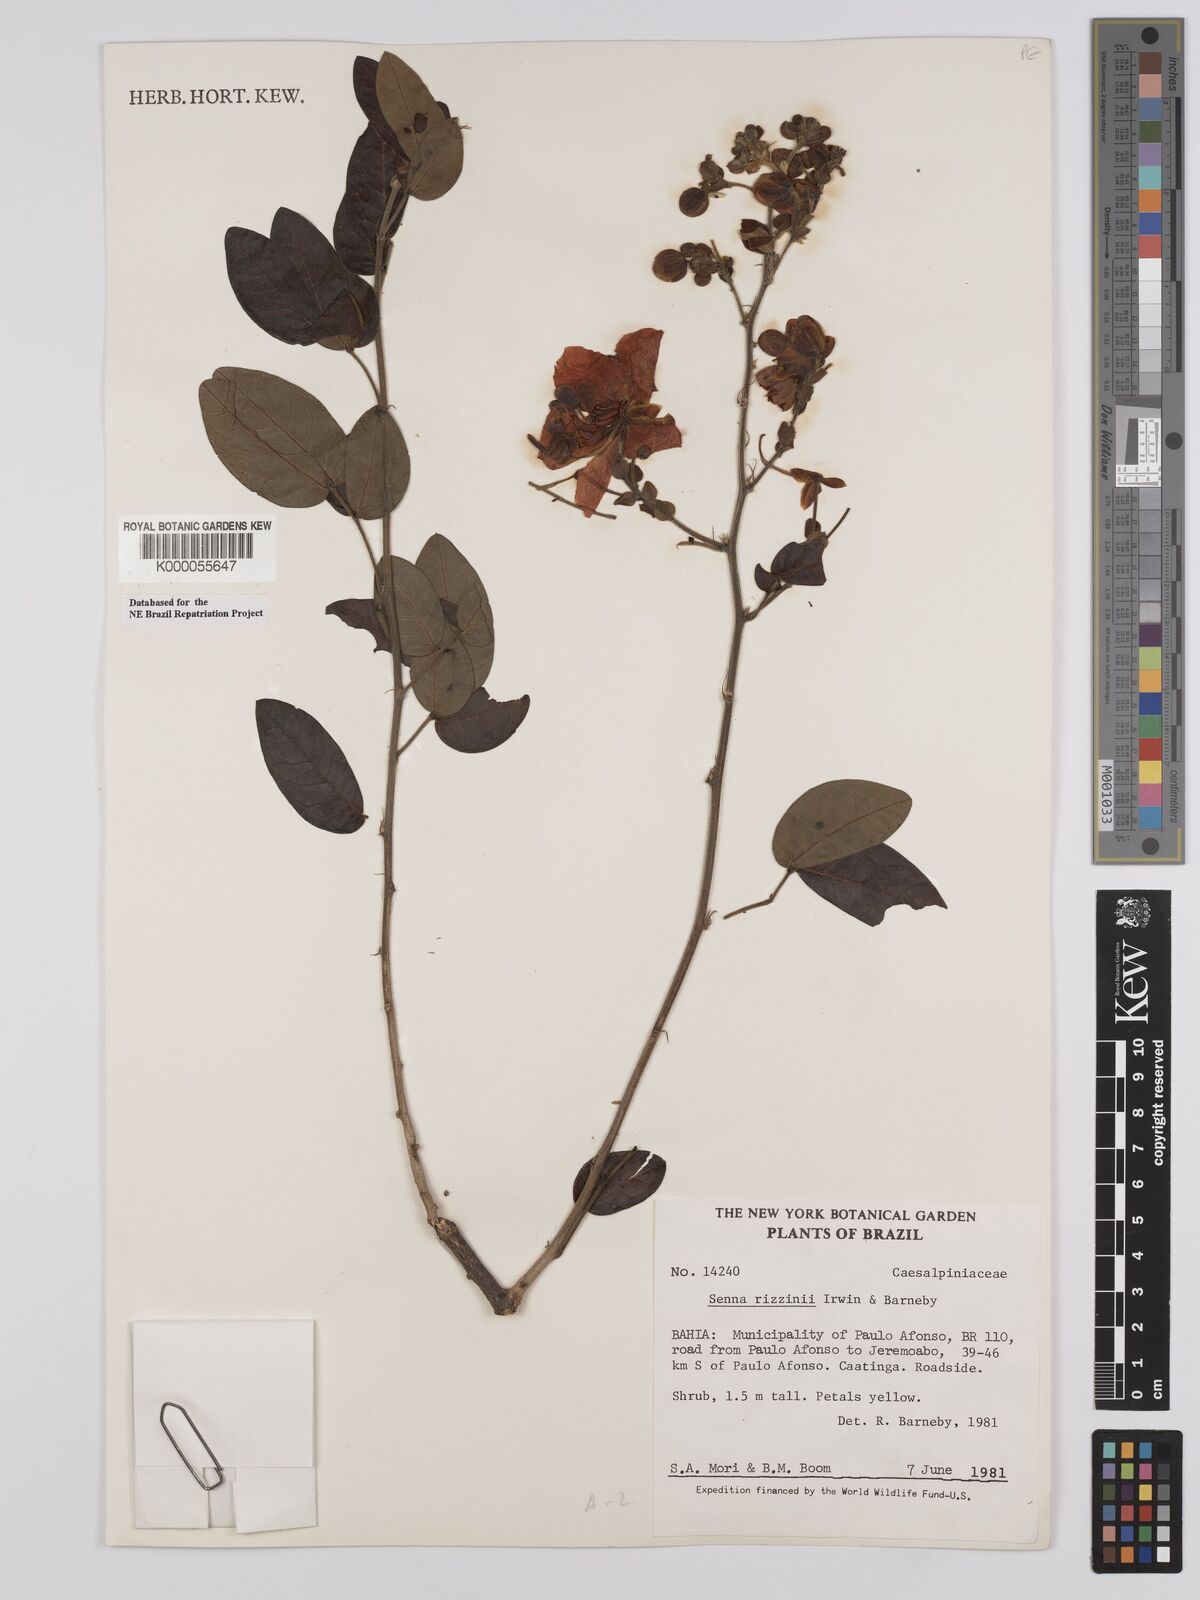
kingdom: Plantae
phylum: Tracheophyta
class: Magnoliopsida
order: Fabales
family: Fabaceae
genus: Senna
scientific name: Senna rizzinii
